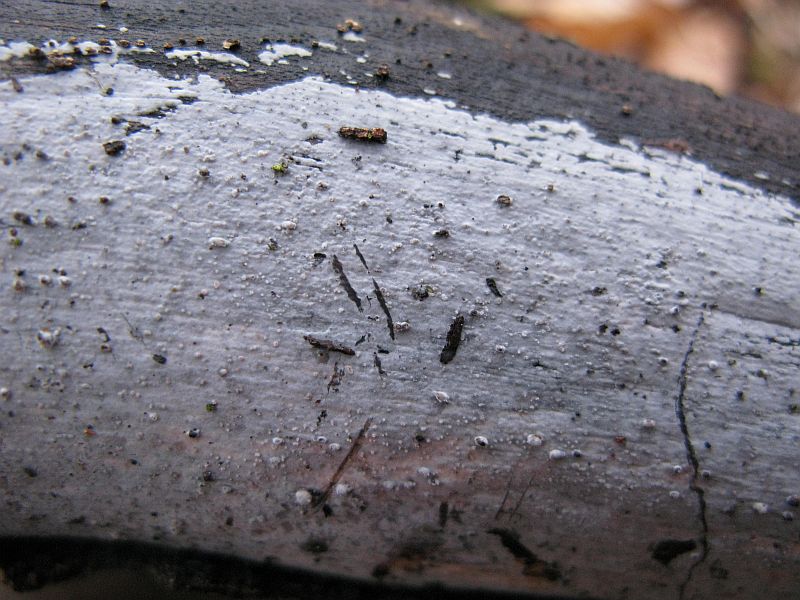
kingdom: Fungi
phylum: Basidiomycota
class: Tremellomycetes
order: Tremellales
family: Exidiaceae
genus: Exidiopsis
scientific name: Exidiopsis effusa
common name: smuk bævrehinde
